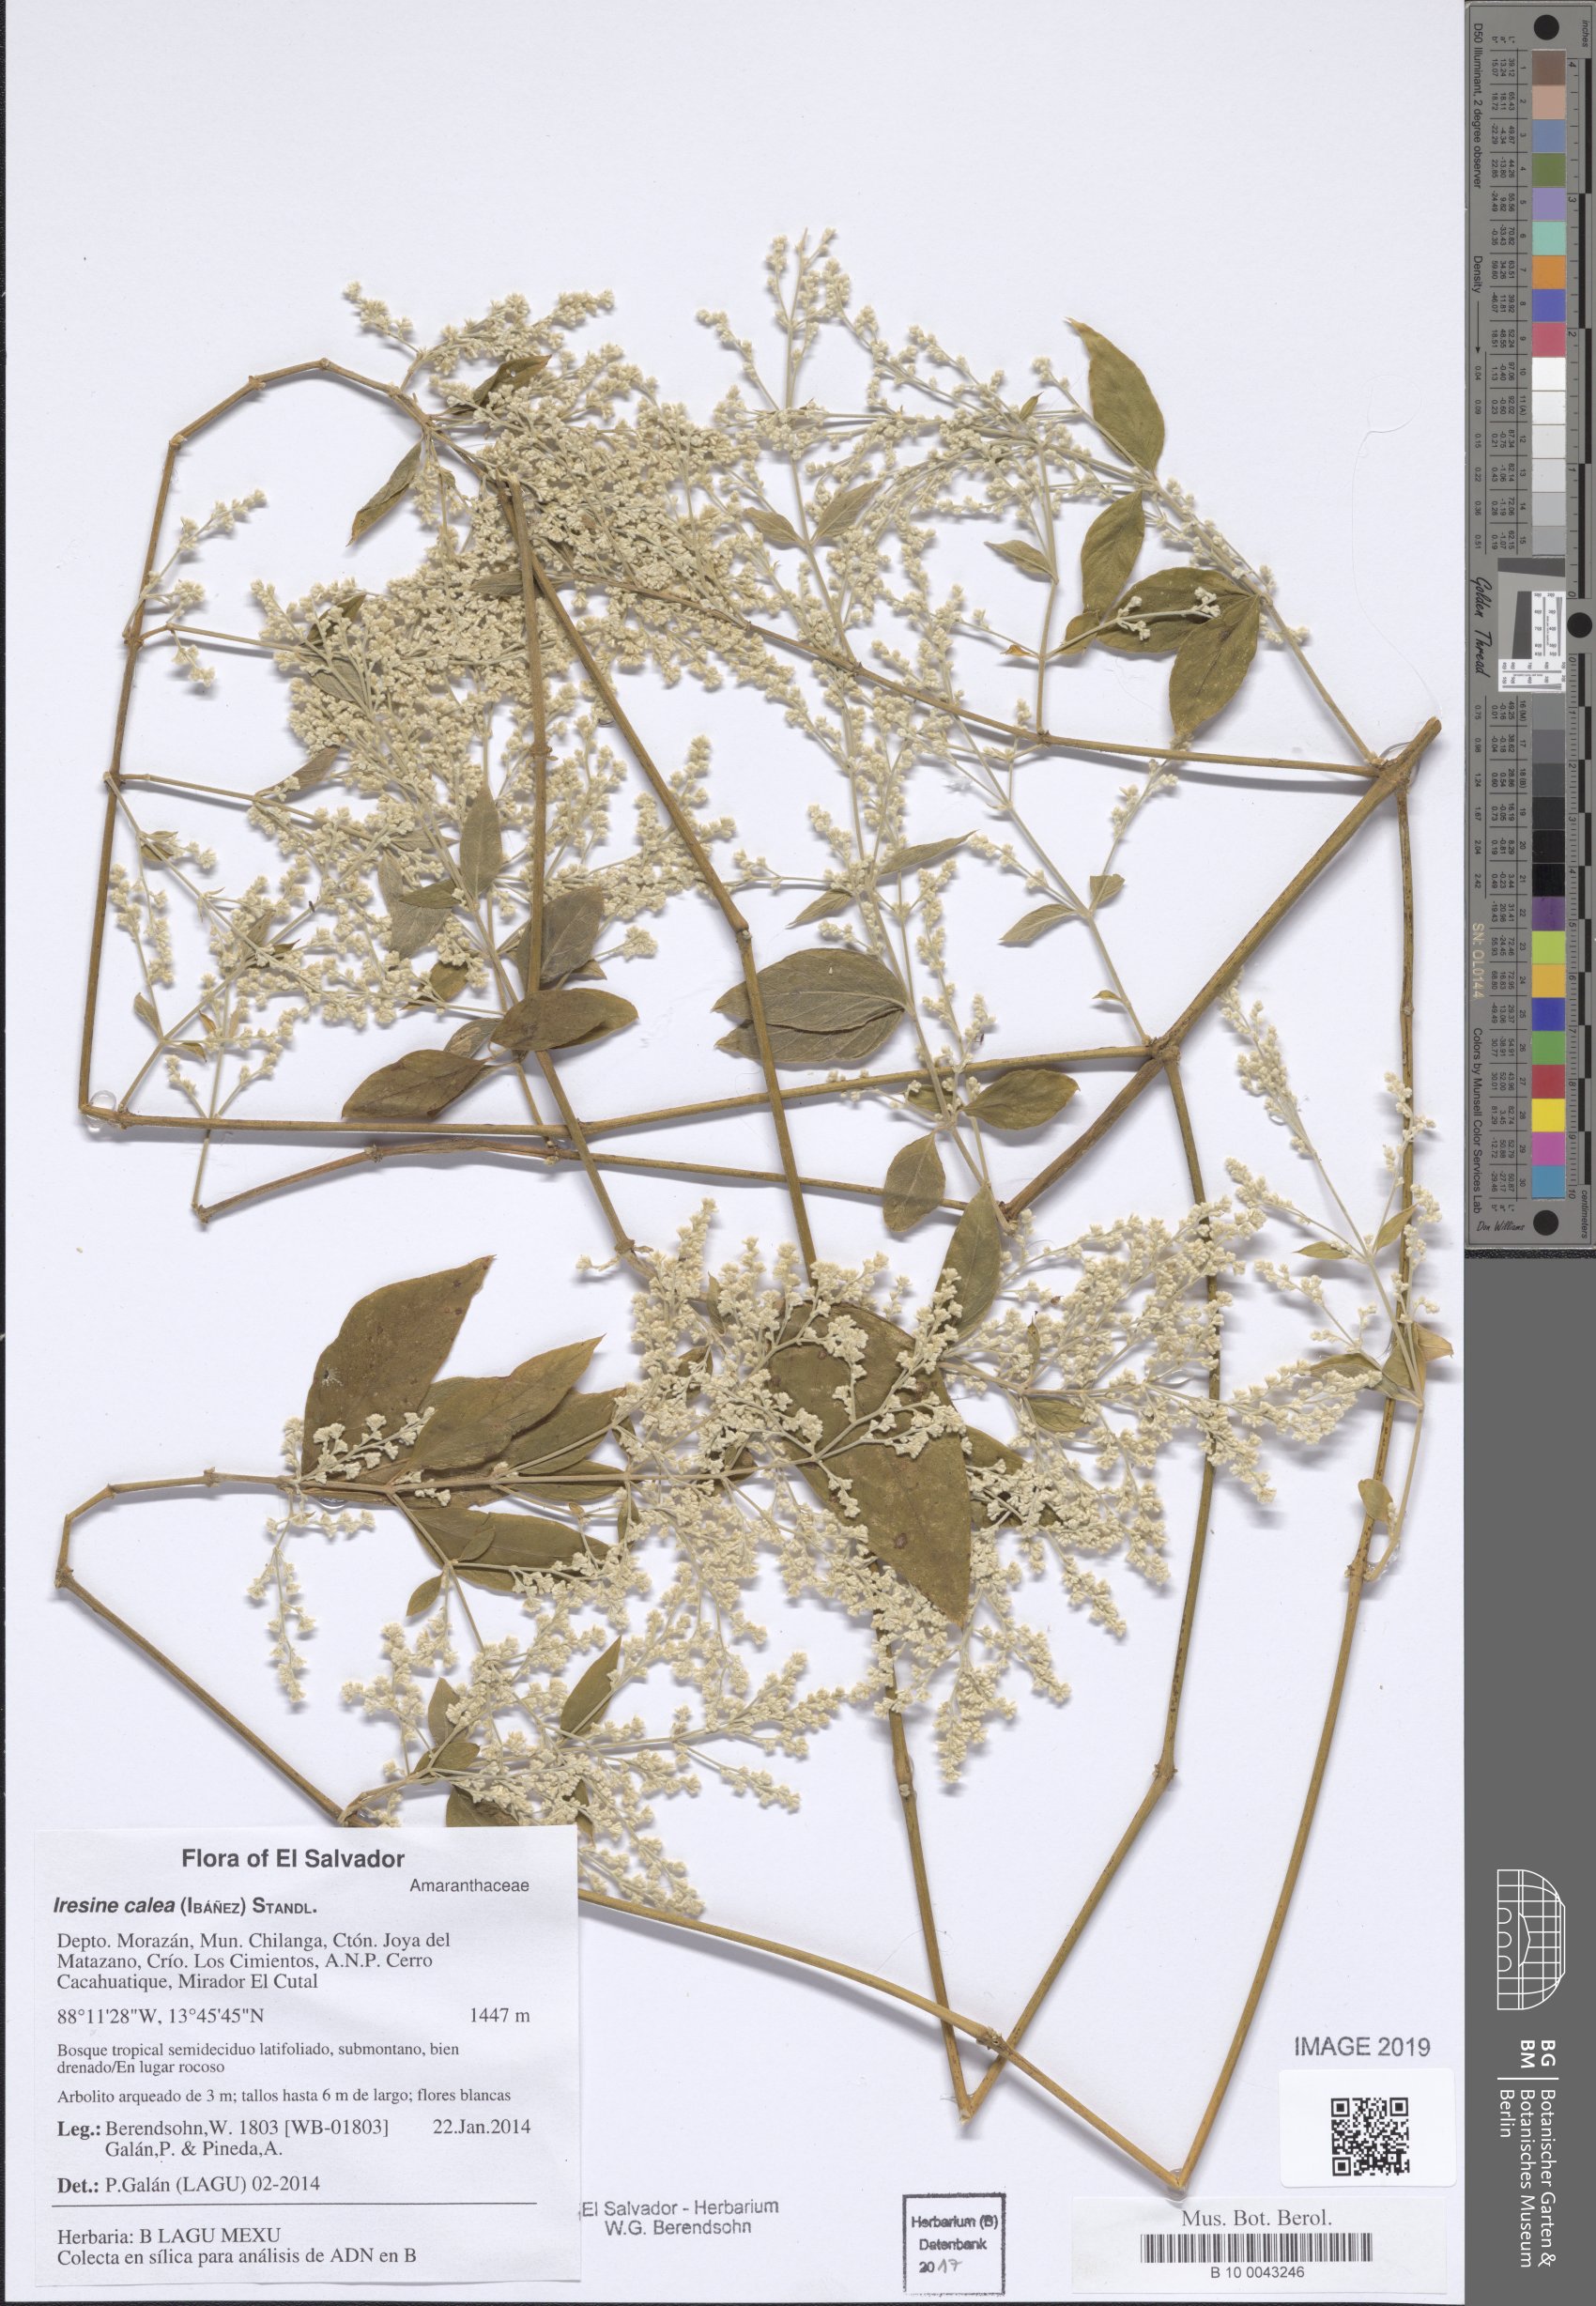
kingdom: Plantae
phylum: Tracheophyta
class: Magnoliopsida
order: Caryophyllales
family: Amaranthaceae
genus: Iresine
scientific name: Iresine latifolia
